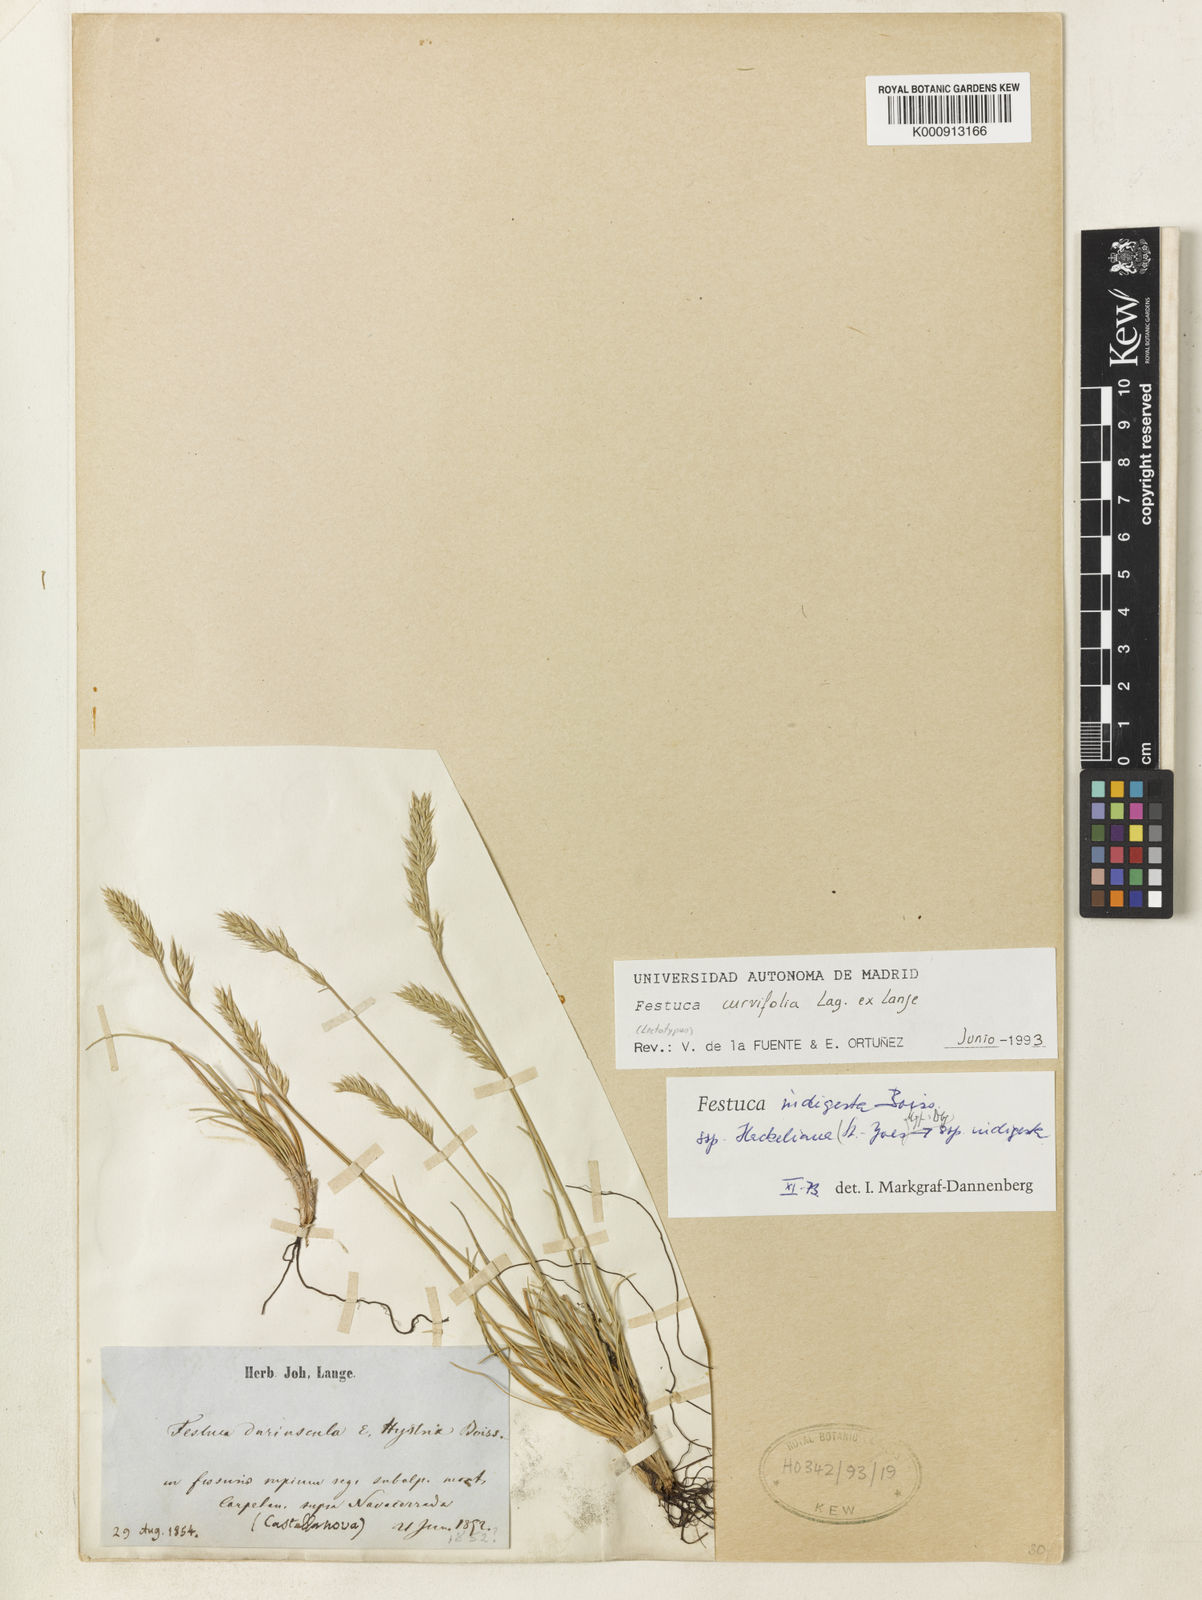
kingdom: Plantae
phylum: Tracheophyta
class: Liliopsida
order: Poales
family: Poaceae
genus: Festuca
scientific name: Festuca indigesta
